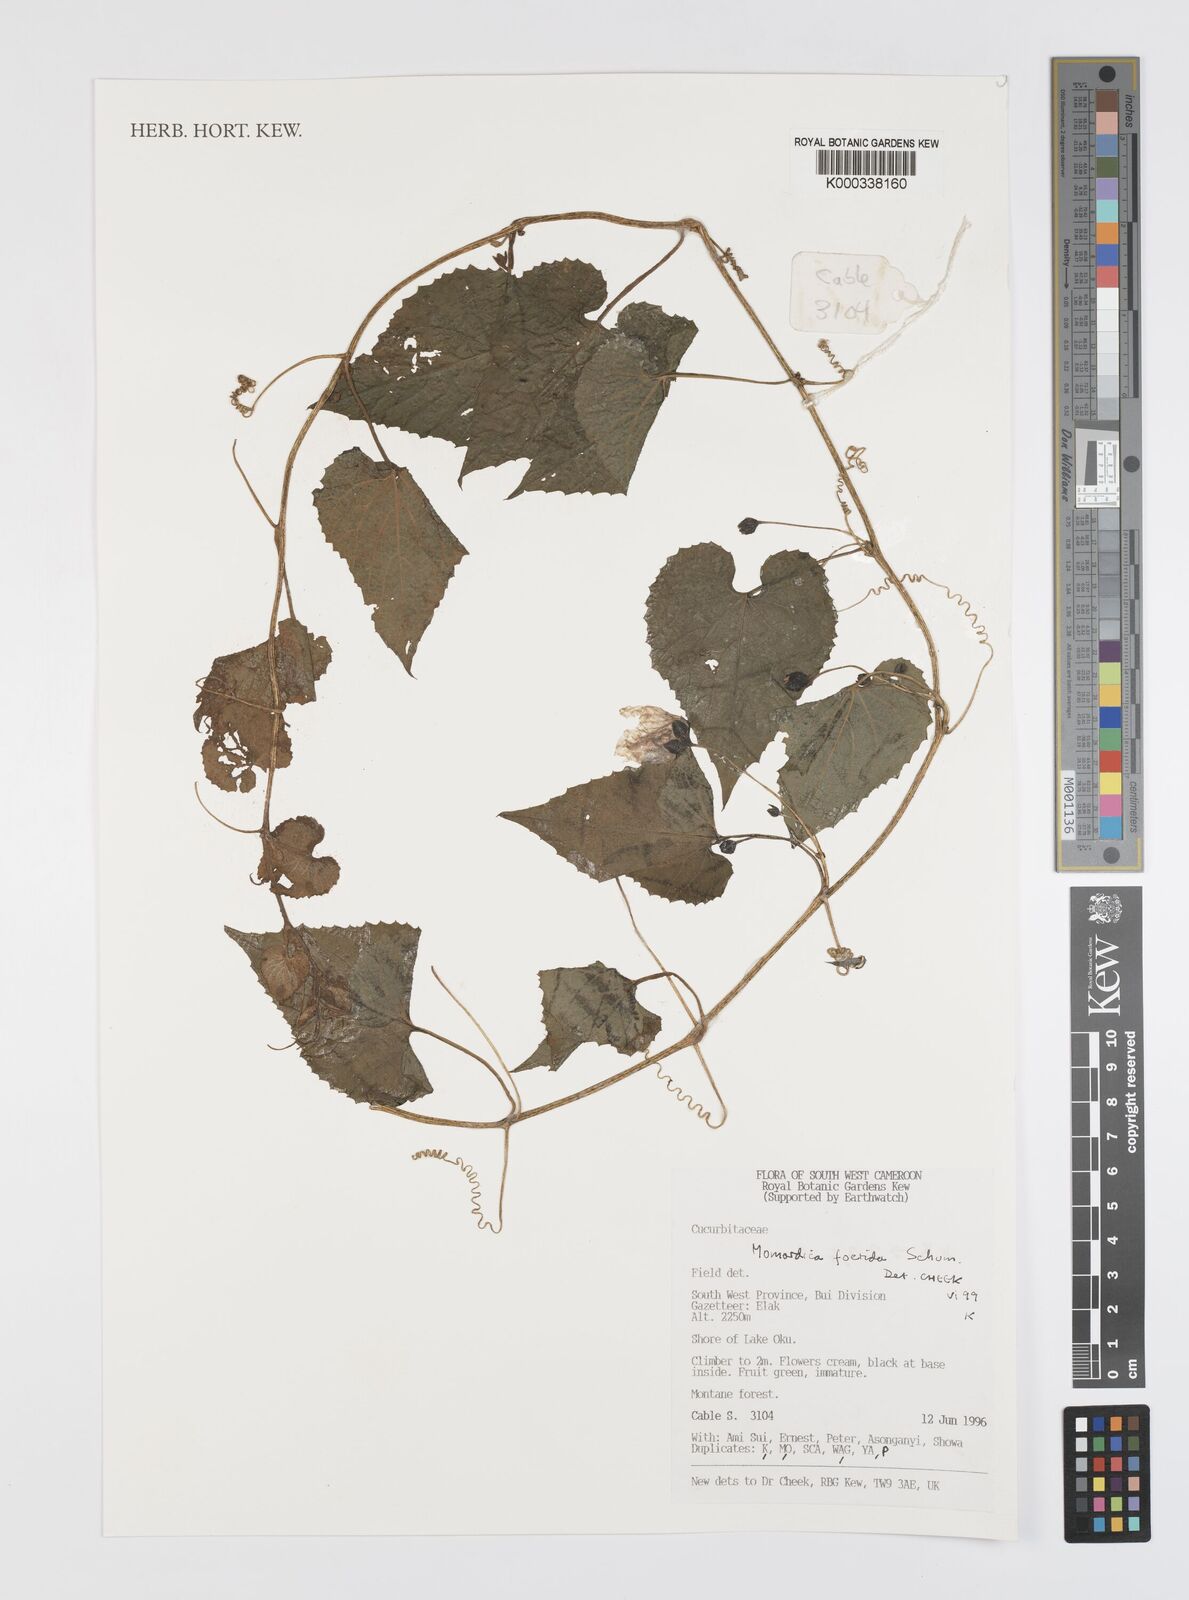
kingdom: Plantae
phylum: Tracheophyta
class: Magnoliopsida
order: Cucurbitales
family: Cucurbitaceae
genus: Momordica
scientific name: Momordica foetida
